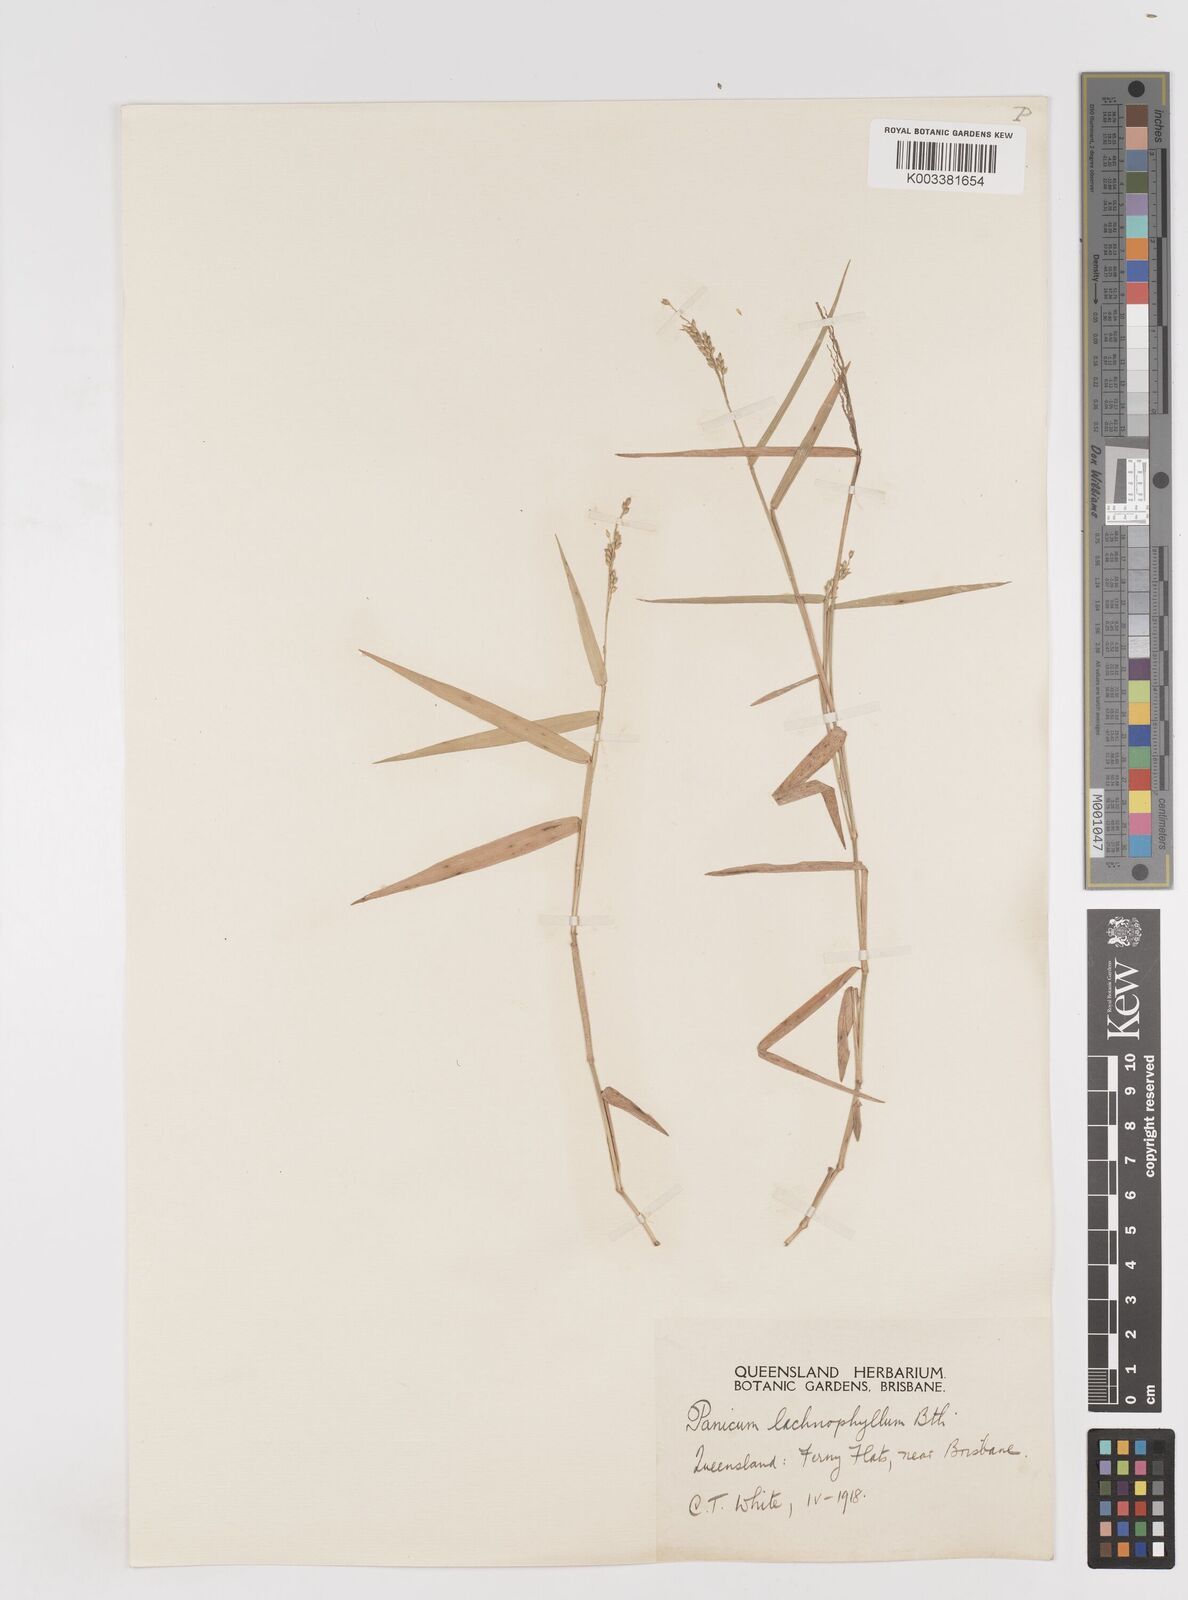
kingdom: Plantae
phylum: Tracheophyta
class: Liliopsida
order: Poales
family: Poaceae
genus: Entolasia
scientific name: Entolasia marginata
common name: Australian panicgrass
